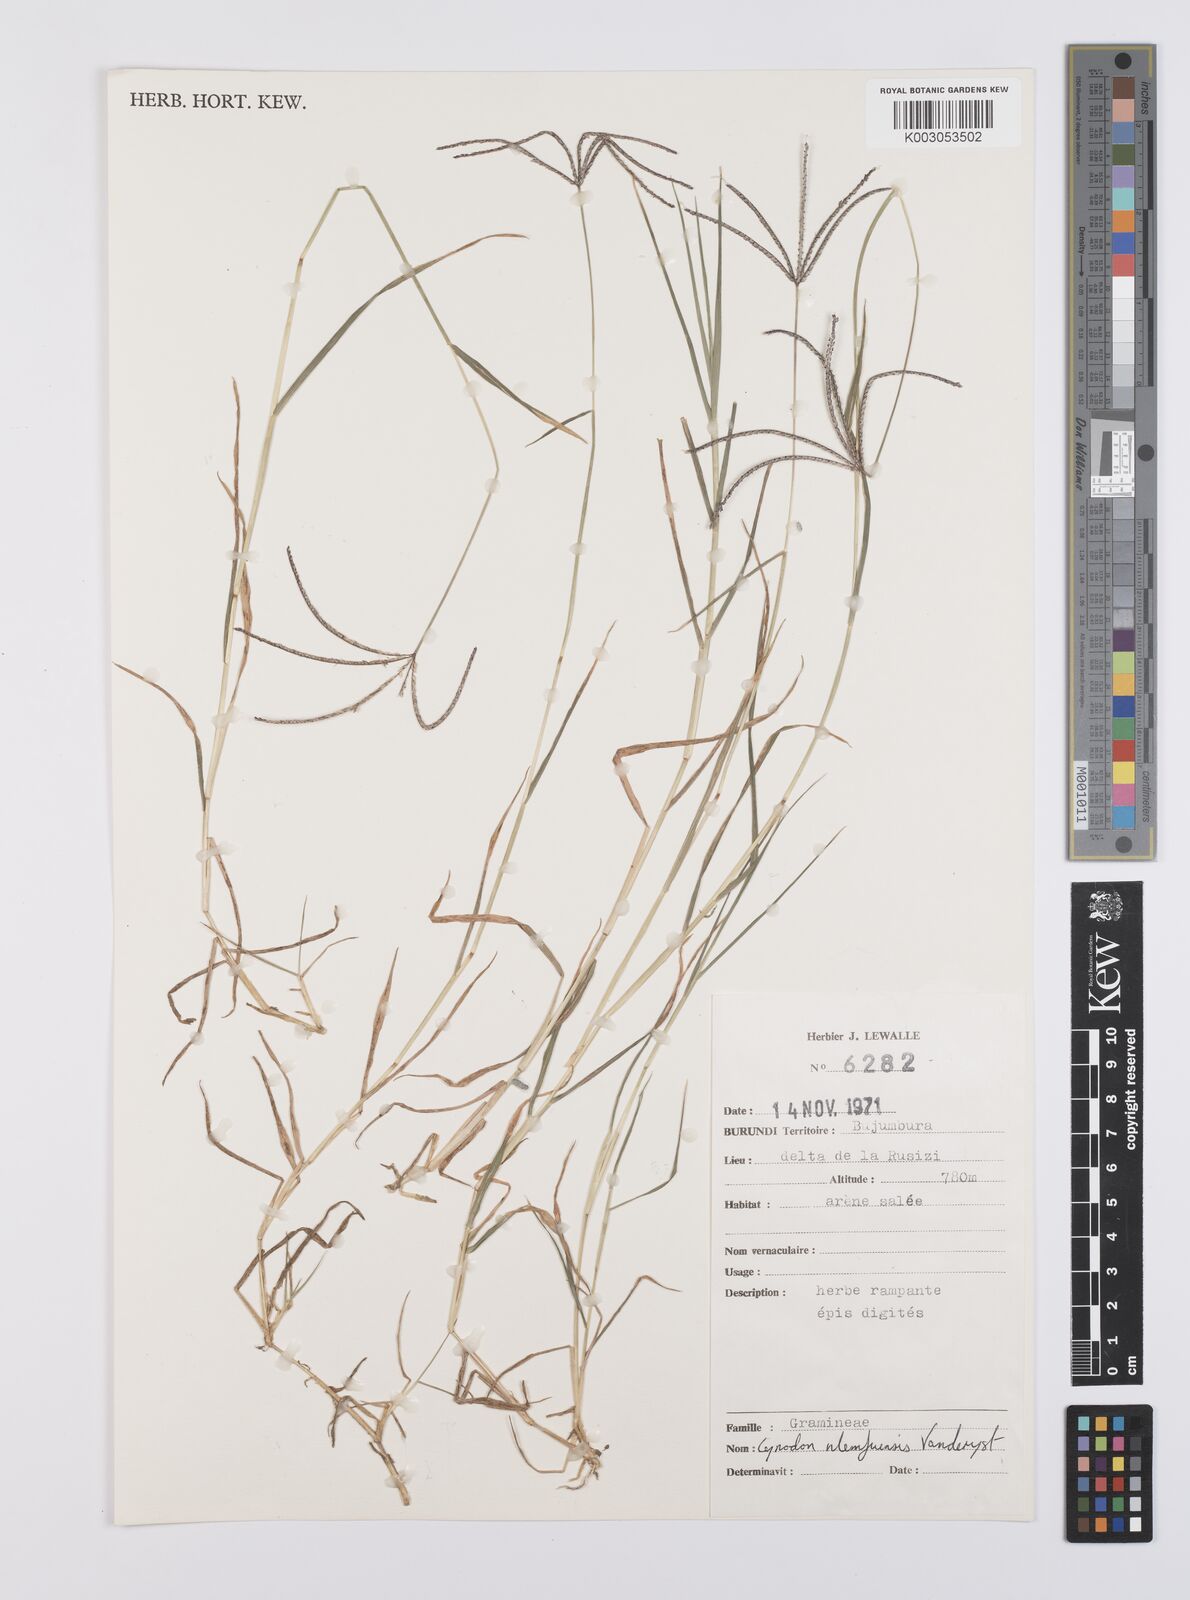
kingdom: Plantae
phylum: Tracheophyta
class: Liliopsida
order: Poales
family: Poaceae
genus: Cynodon
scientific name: Cynodon nlemfuensis
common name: African bermudagrass
